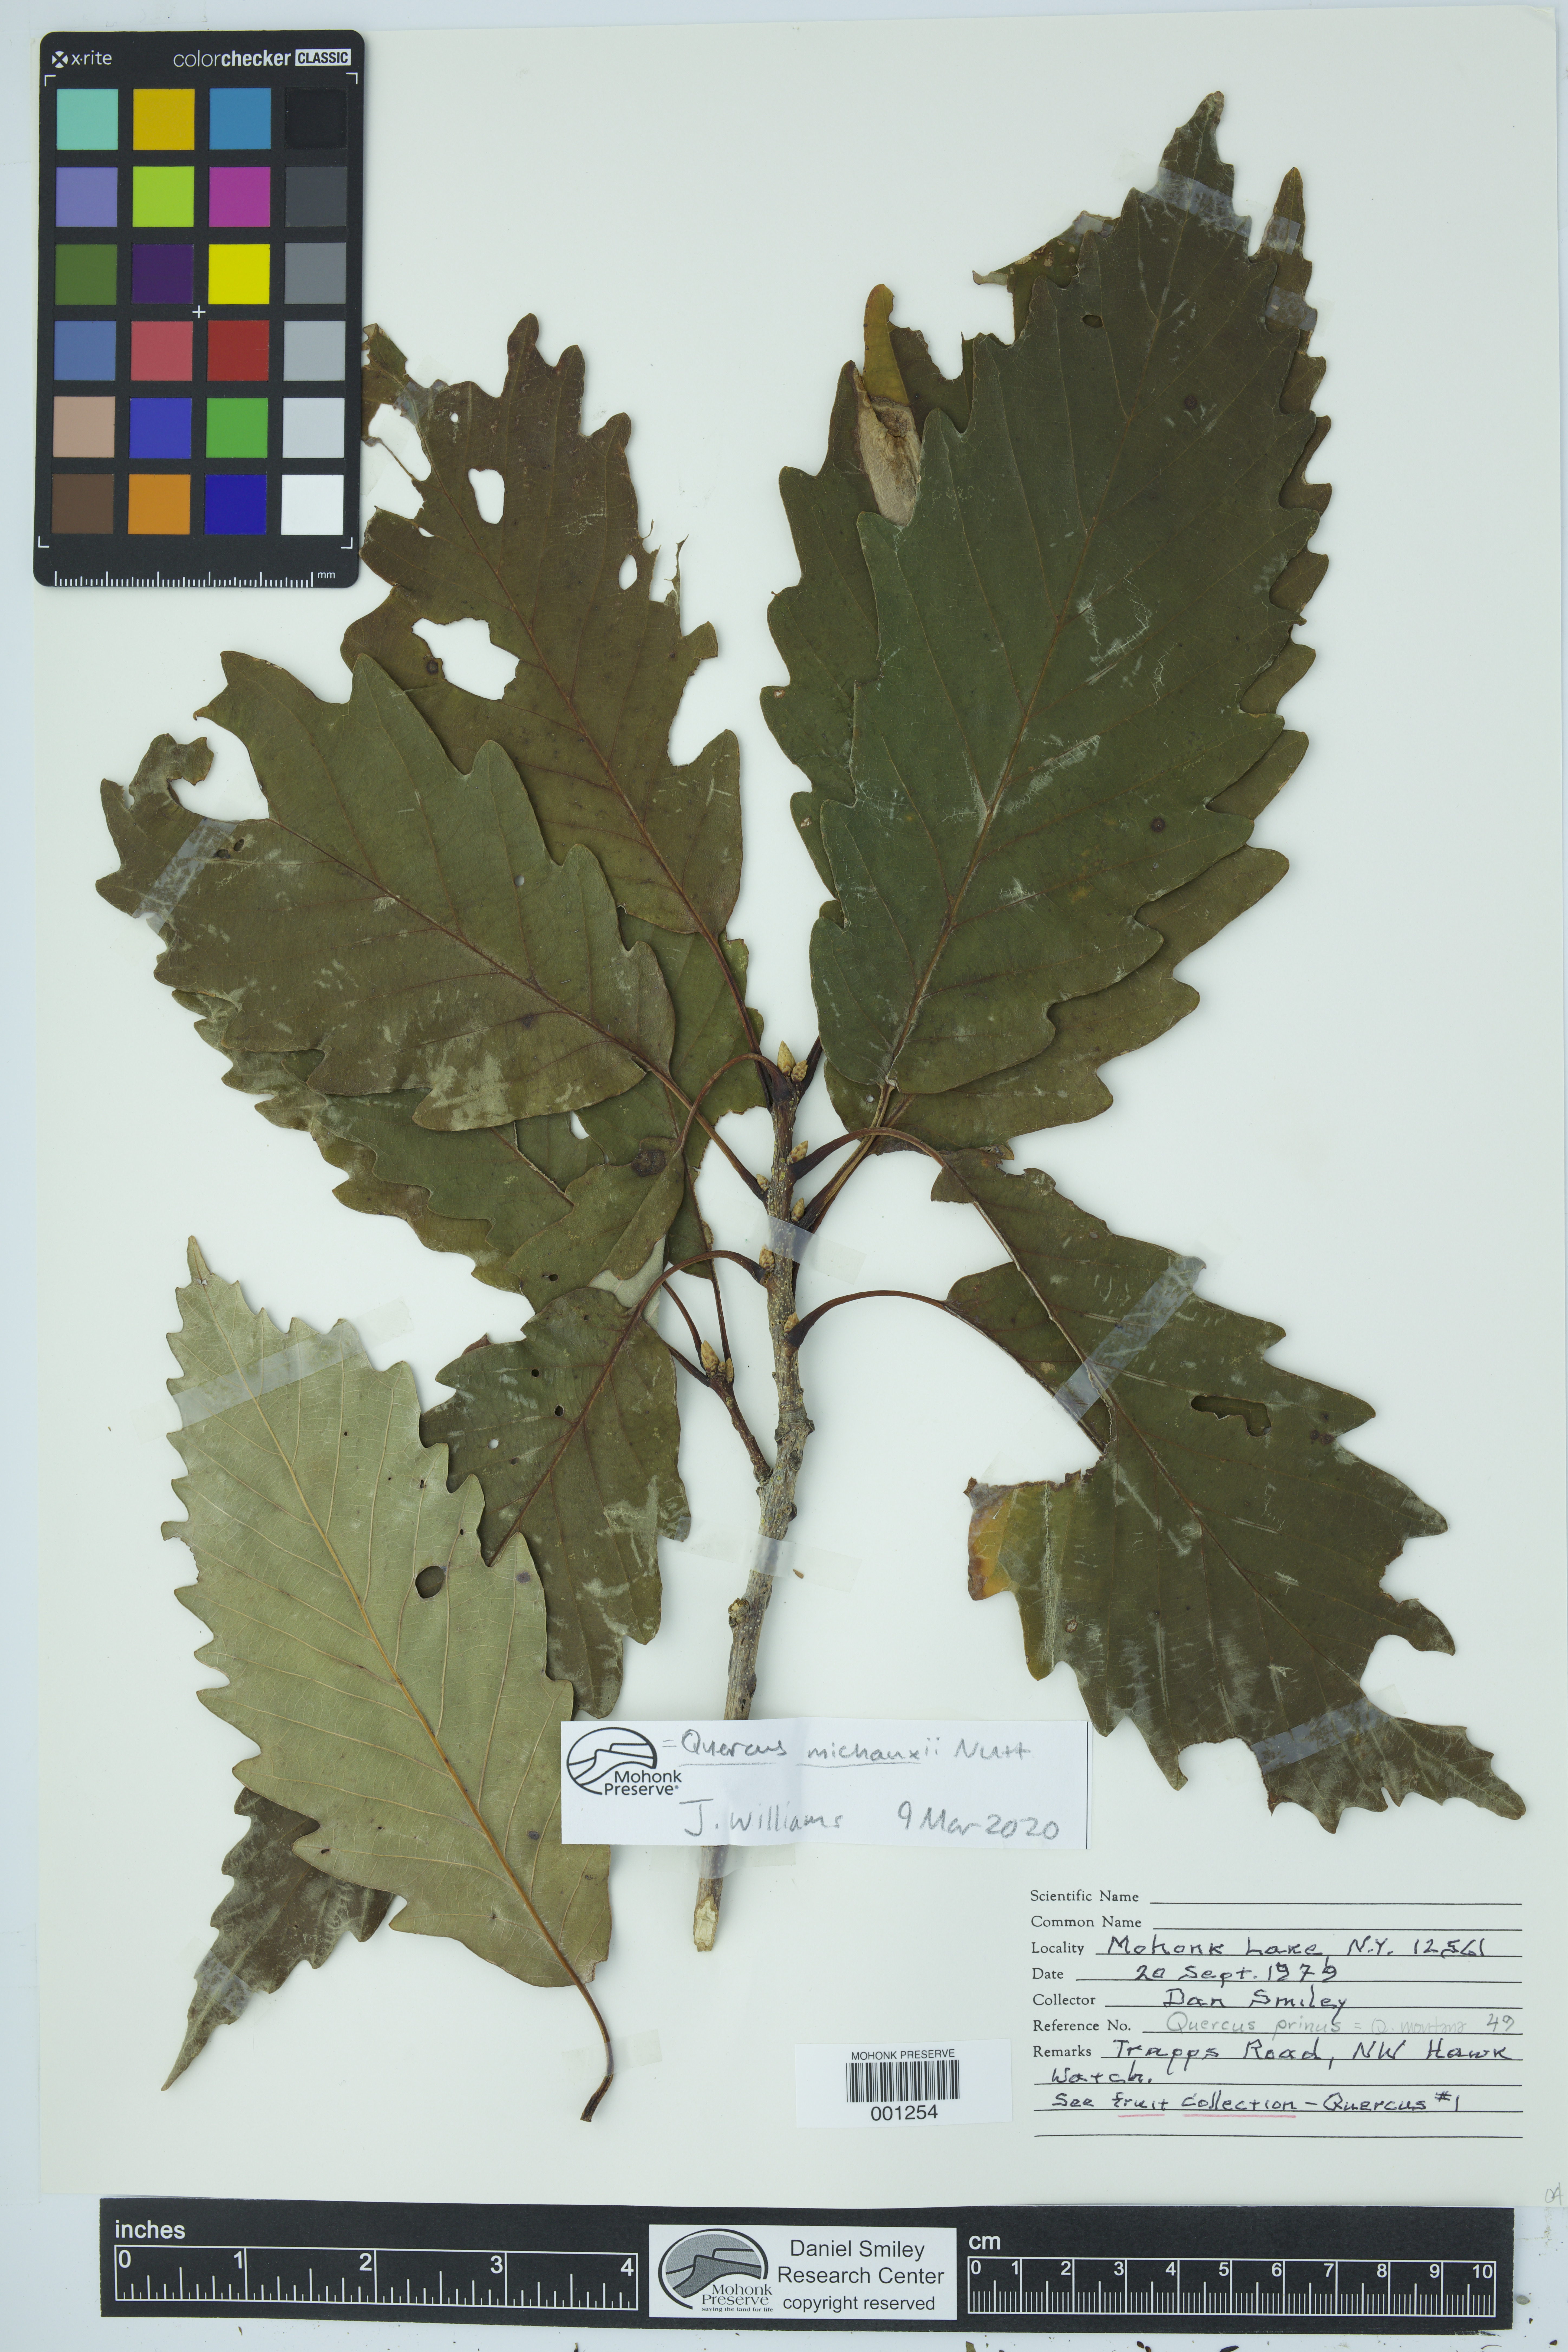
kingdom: Plantae
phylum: Tracheophyta
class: Magnoliopsida
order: Fagales
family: Fagaceae
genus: Quercus
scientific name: Quercus michauxii
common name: Swamp chestnut oak
